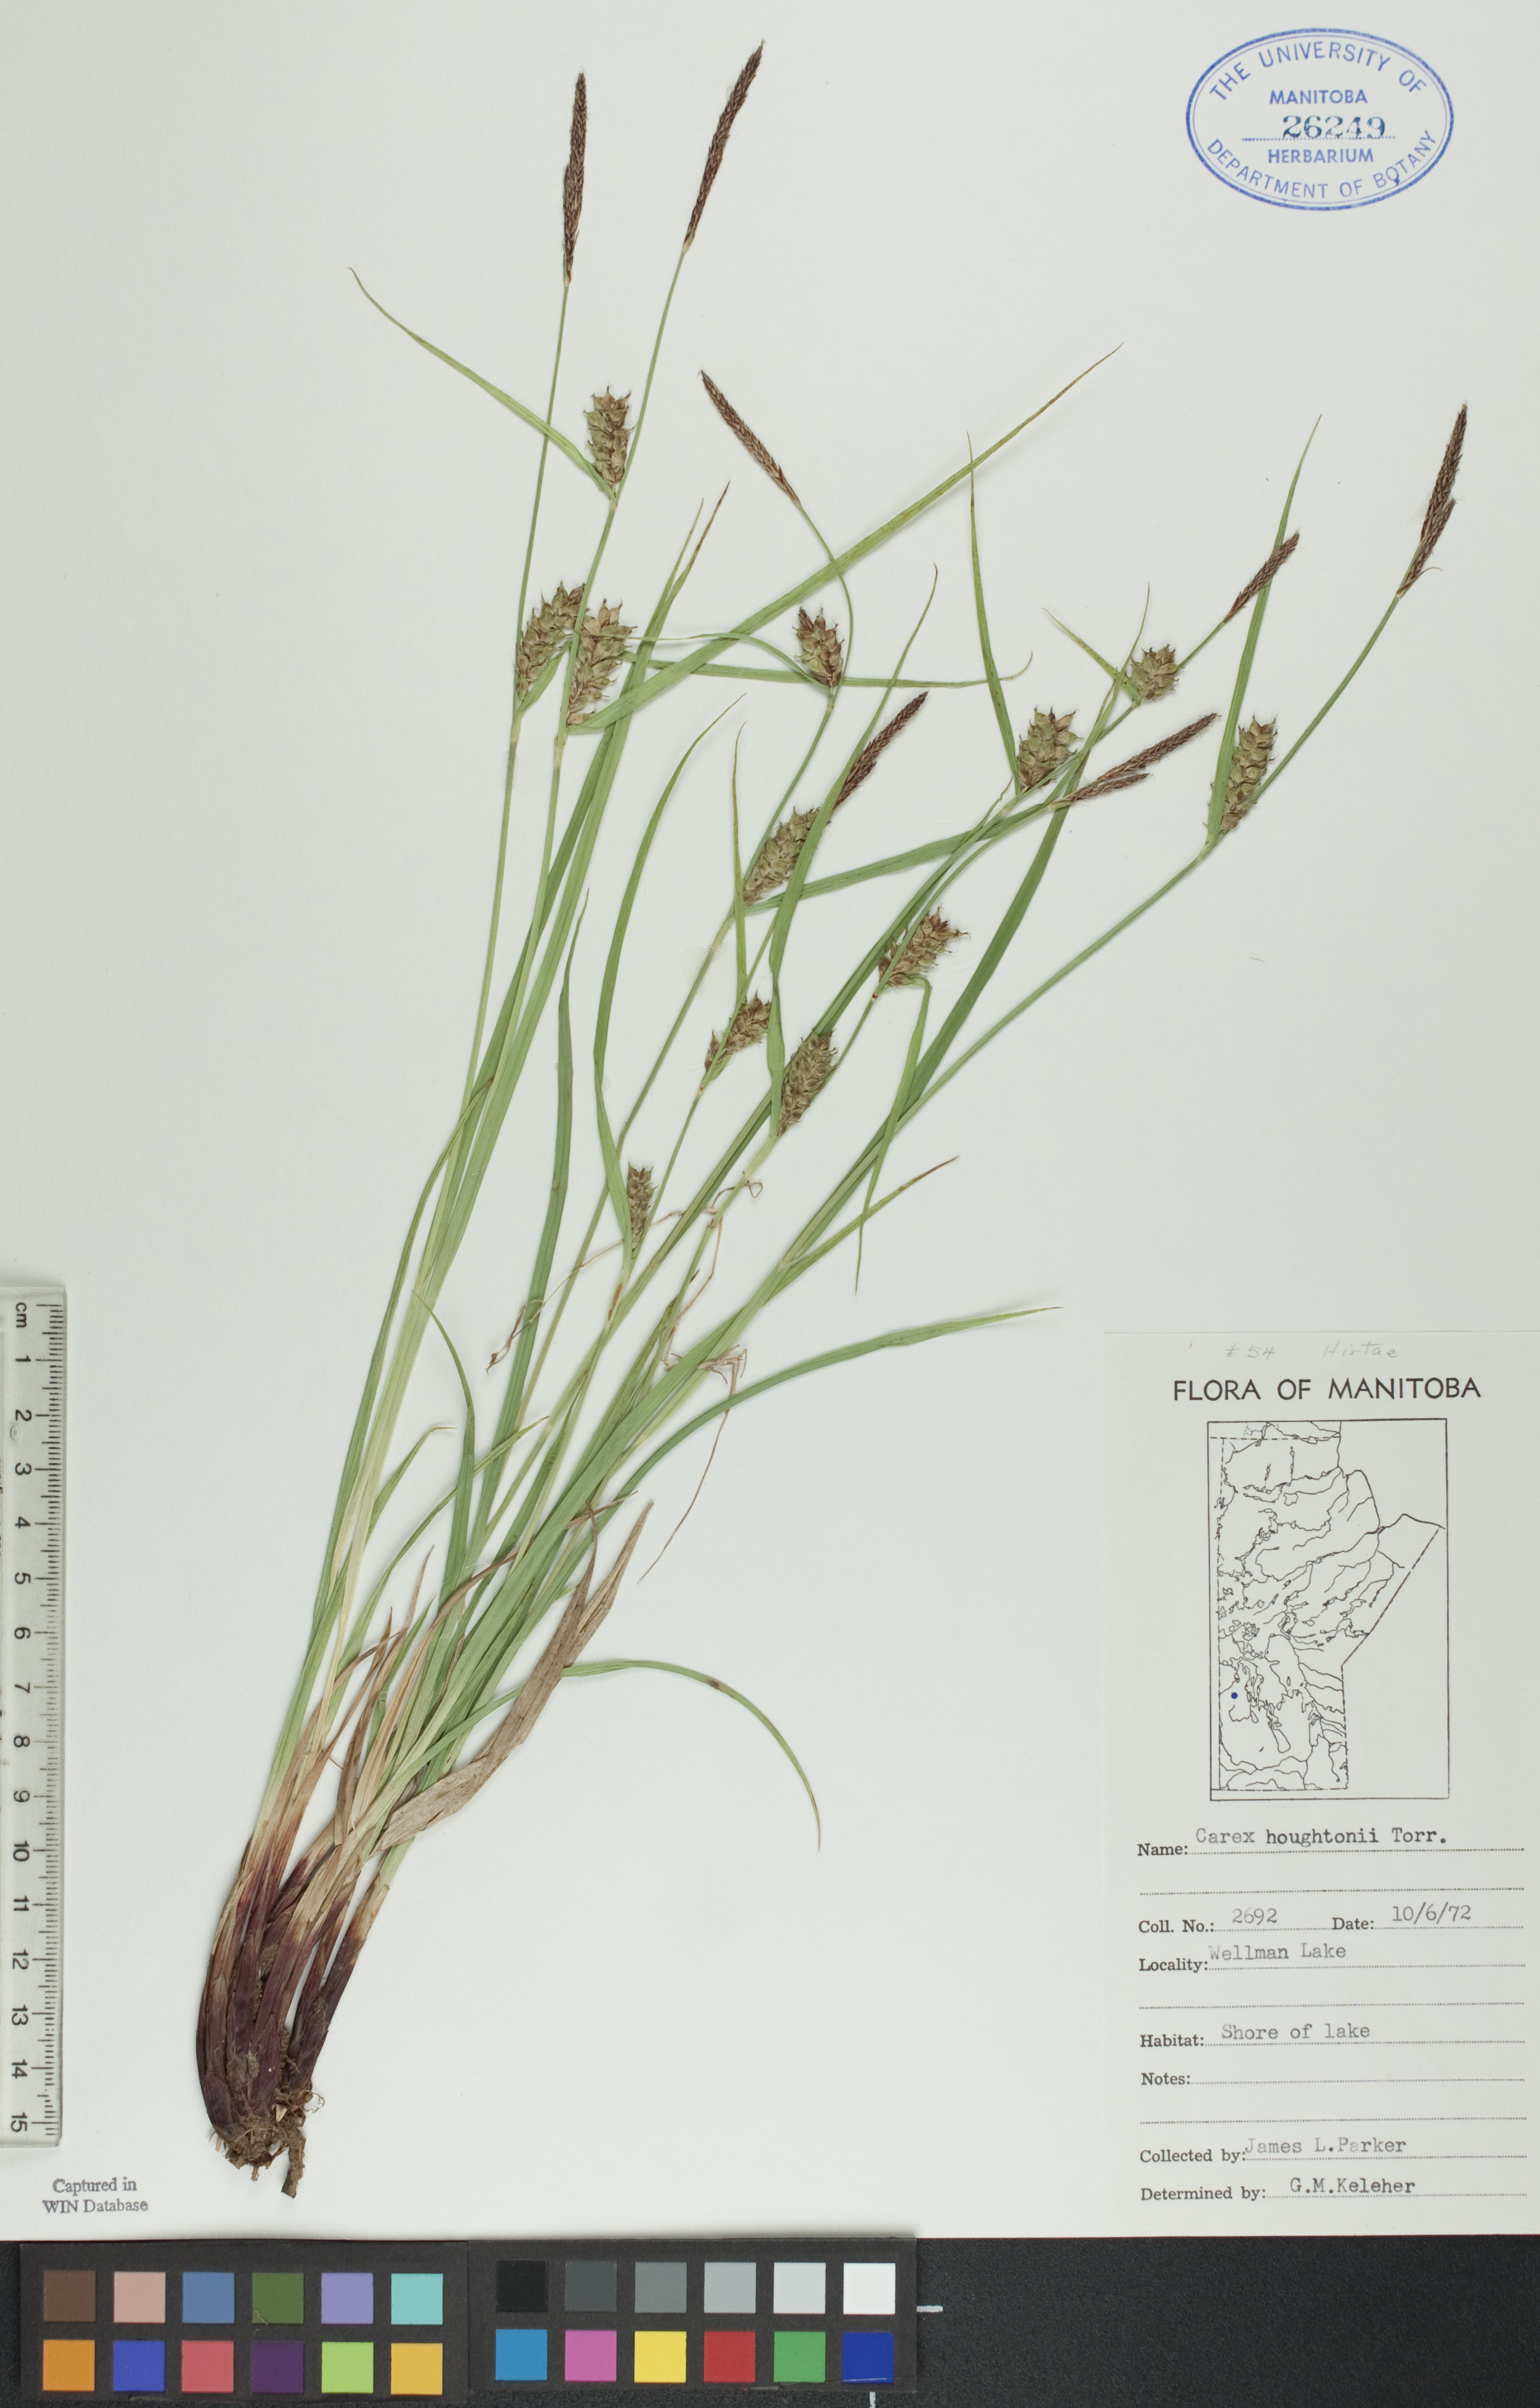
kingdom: Plantae
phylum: Tracheophyta
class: Liliopsida
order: Poales
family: Cyperaceae
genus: Carex
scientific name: Carex houghtoniana
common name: Houghton's sedge
